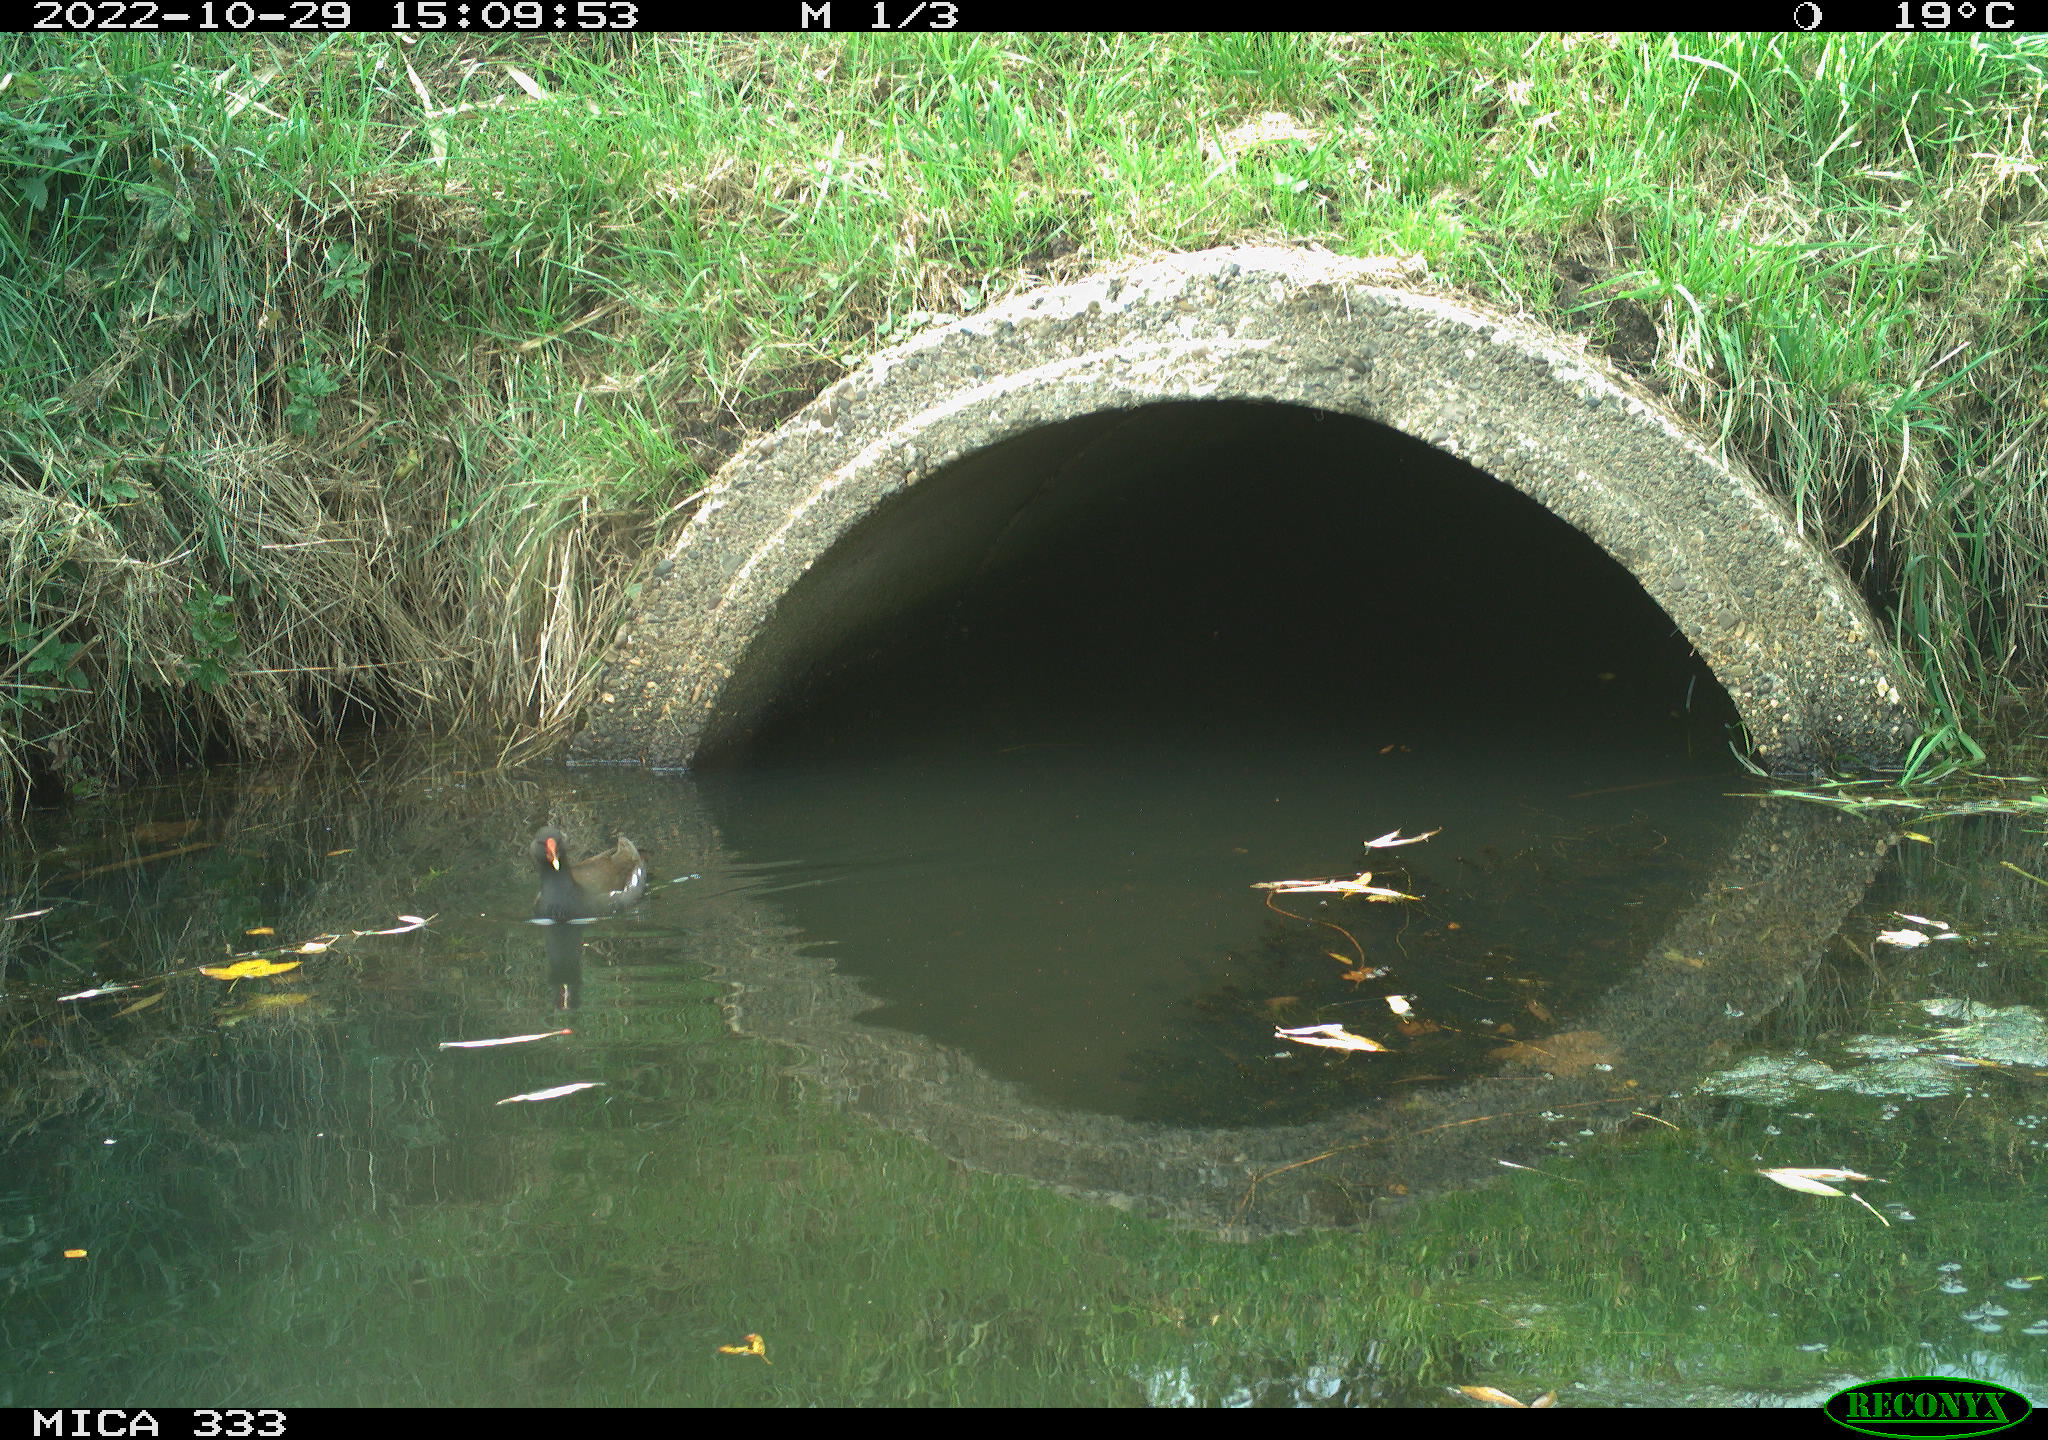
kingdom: Animalia
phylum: Chordata
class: Aves
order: Gruiformes
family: Rallidae
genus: Gallinula
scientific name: Gallinula chloropus
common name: Common moorhen
